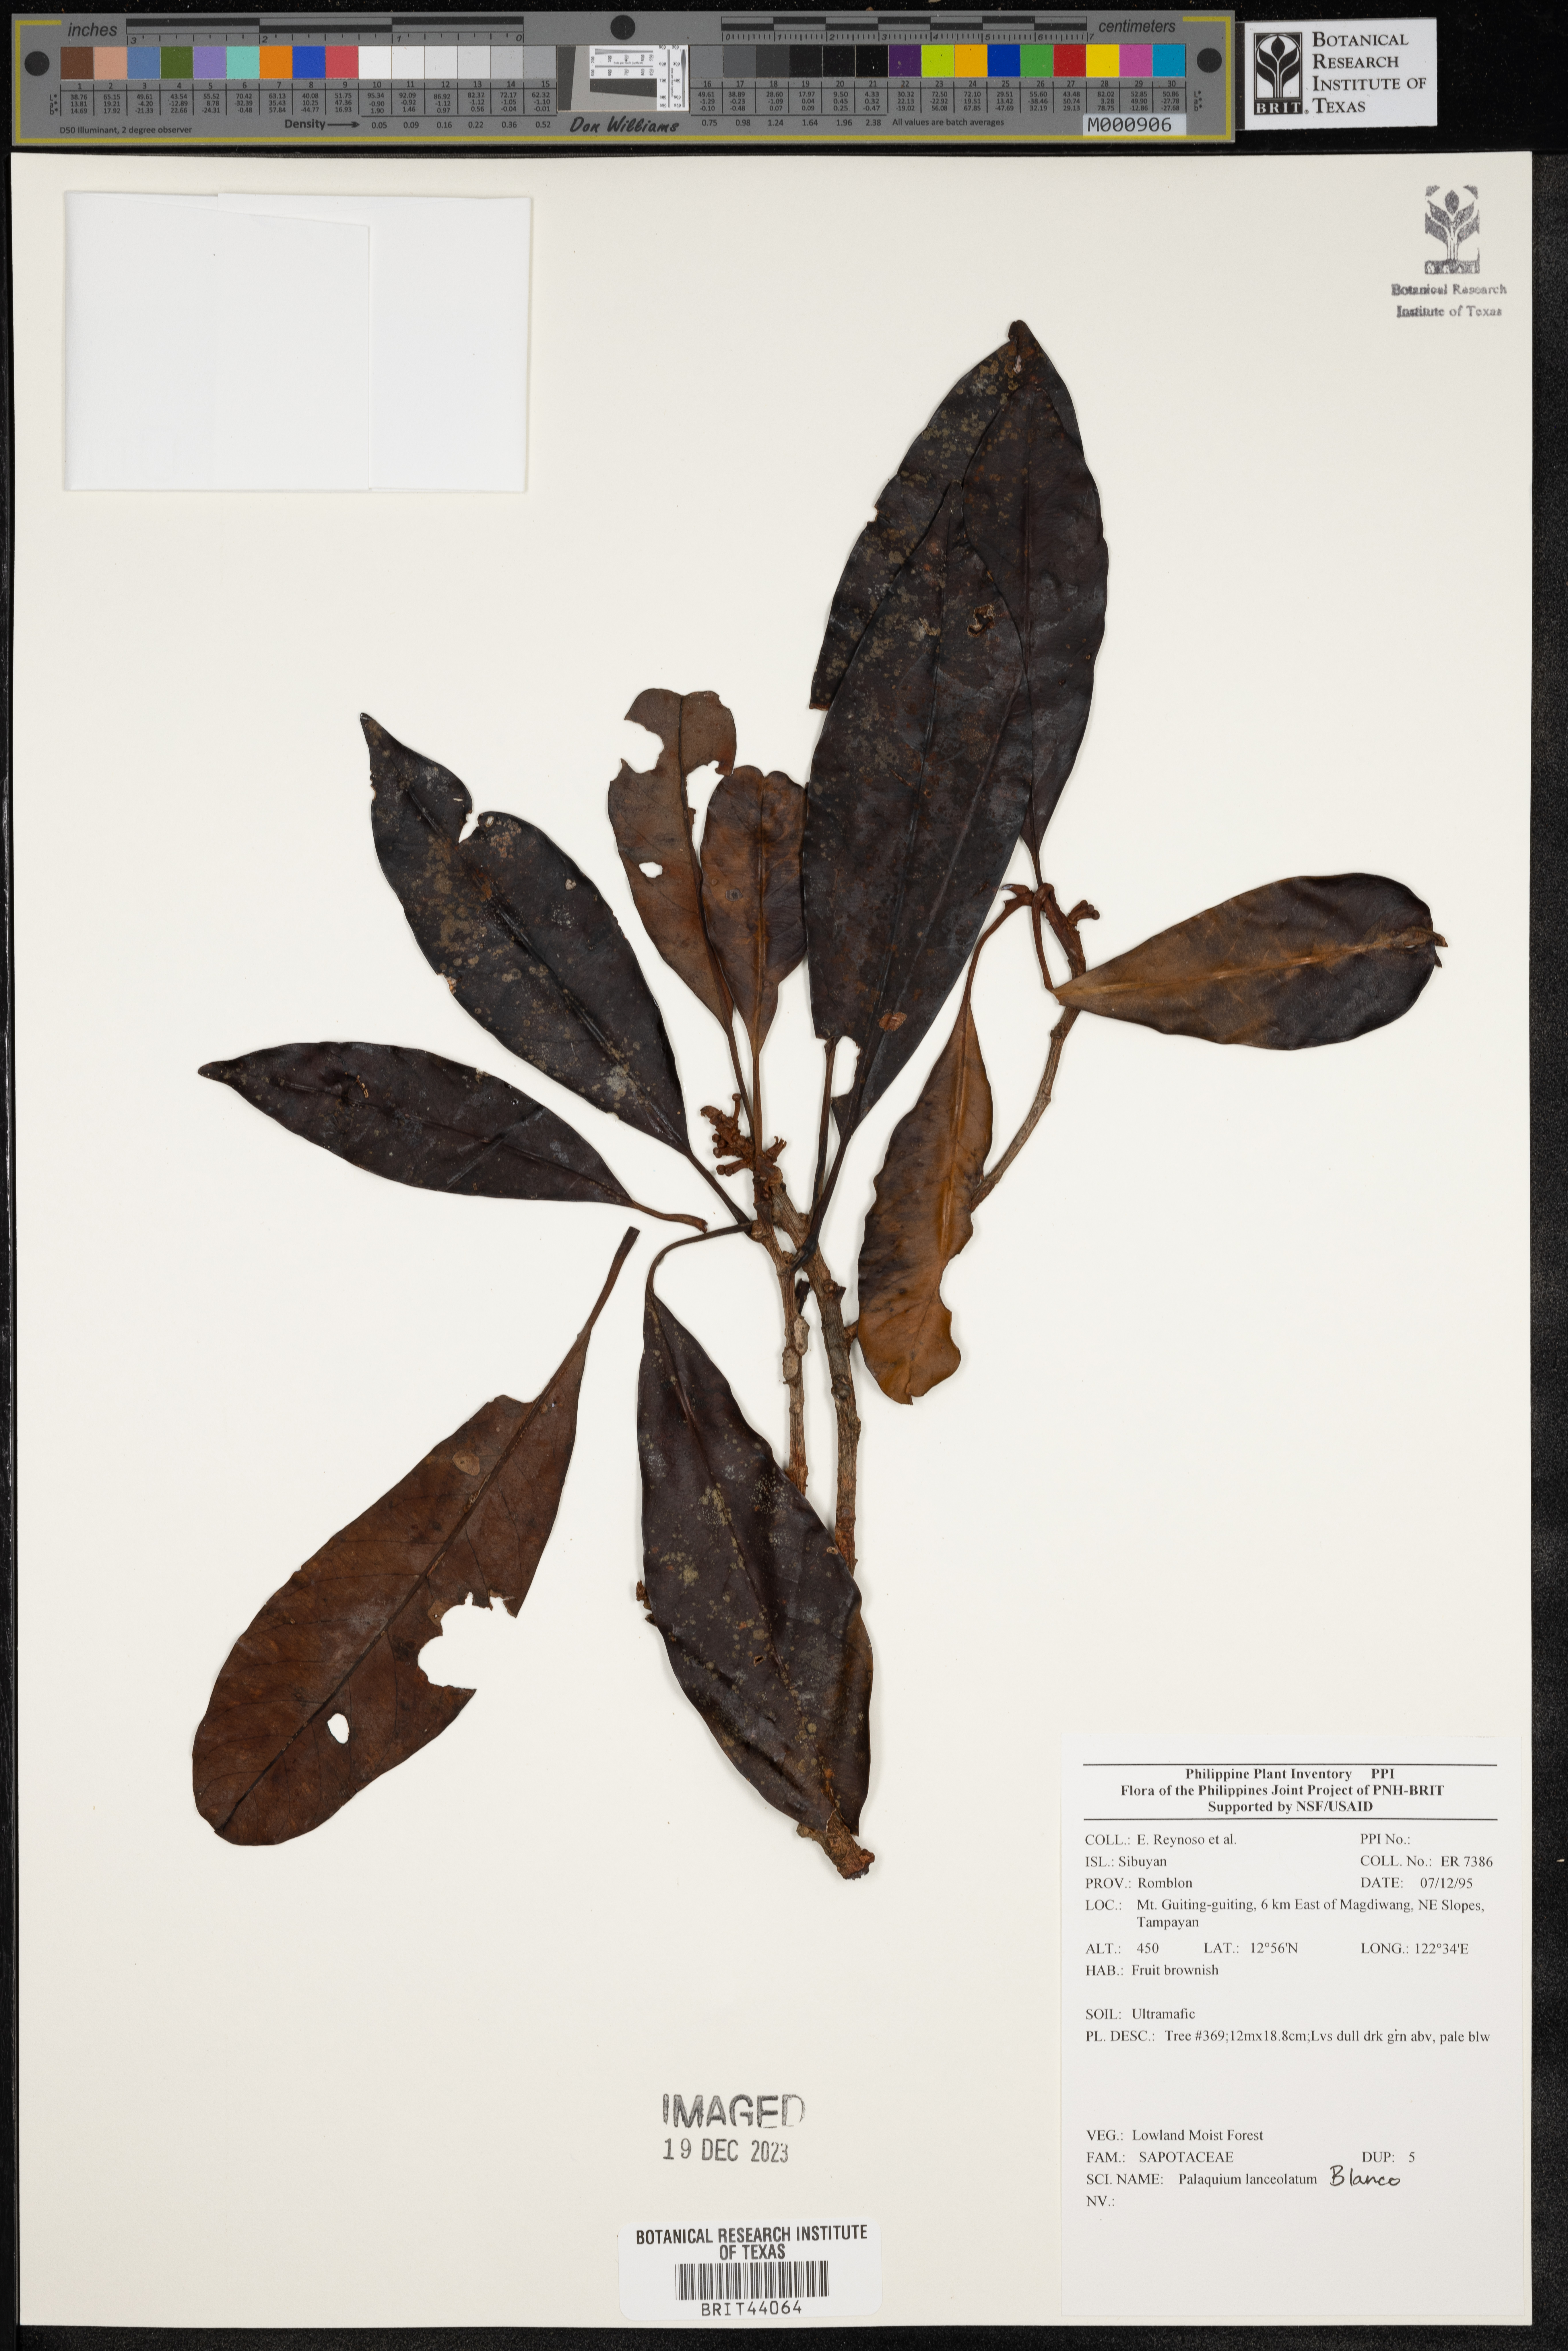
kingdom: Plantae
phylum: Tracheophyta
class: Magnoliopsida
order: Ericales
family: Sapotaceae
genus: Palaquium
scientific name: Palaquium lanceolatum
